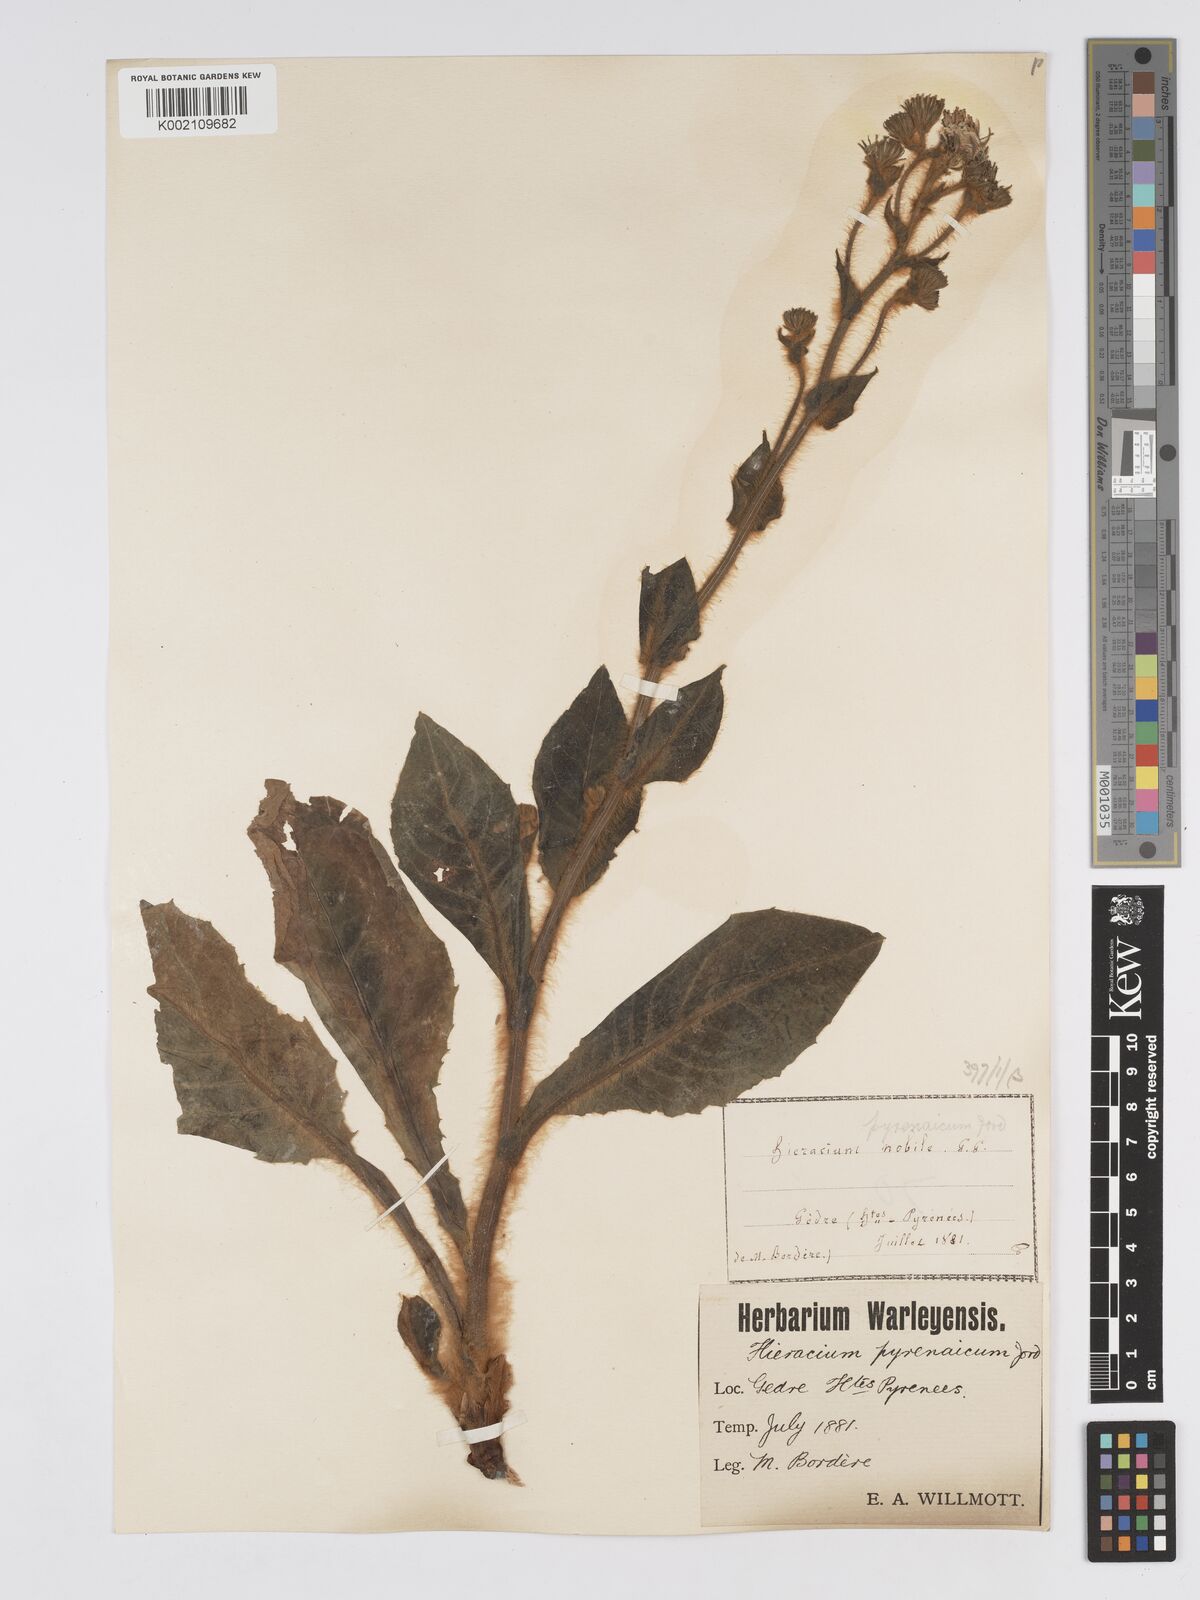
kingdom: Plantae
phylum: Tracheophyta
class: Magnoliopsida
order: Asterales
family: Asteraceae
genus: Hieracium
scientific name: Hieracium nobile
